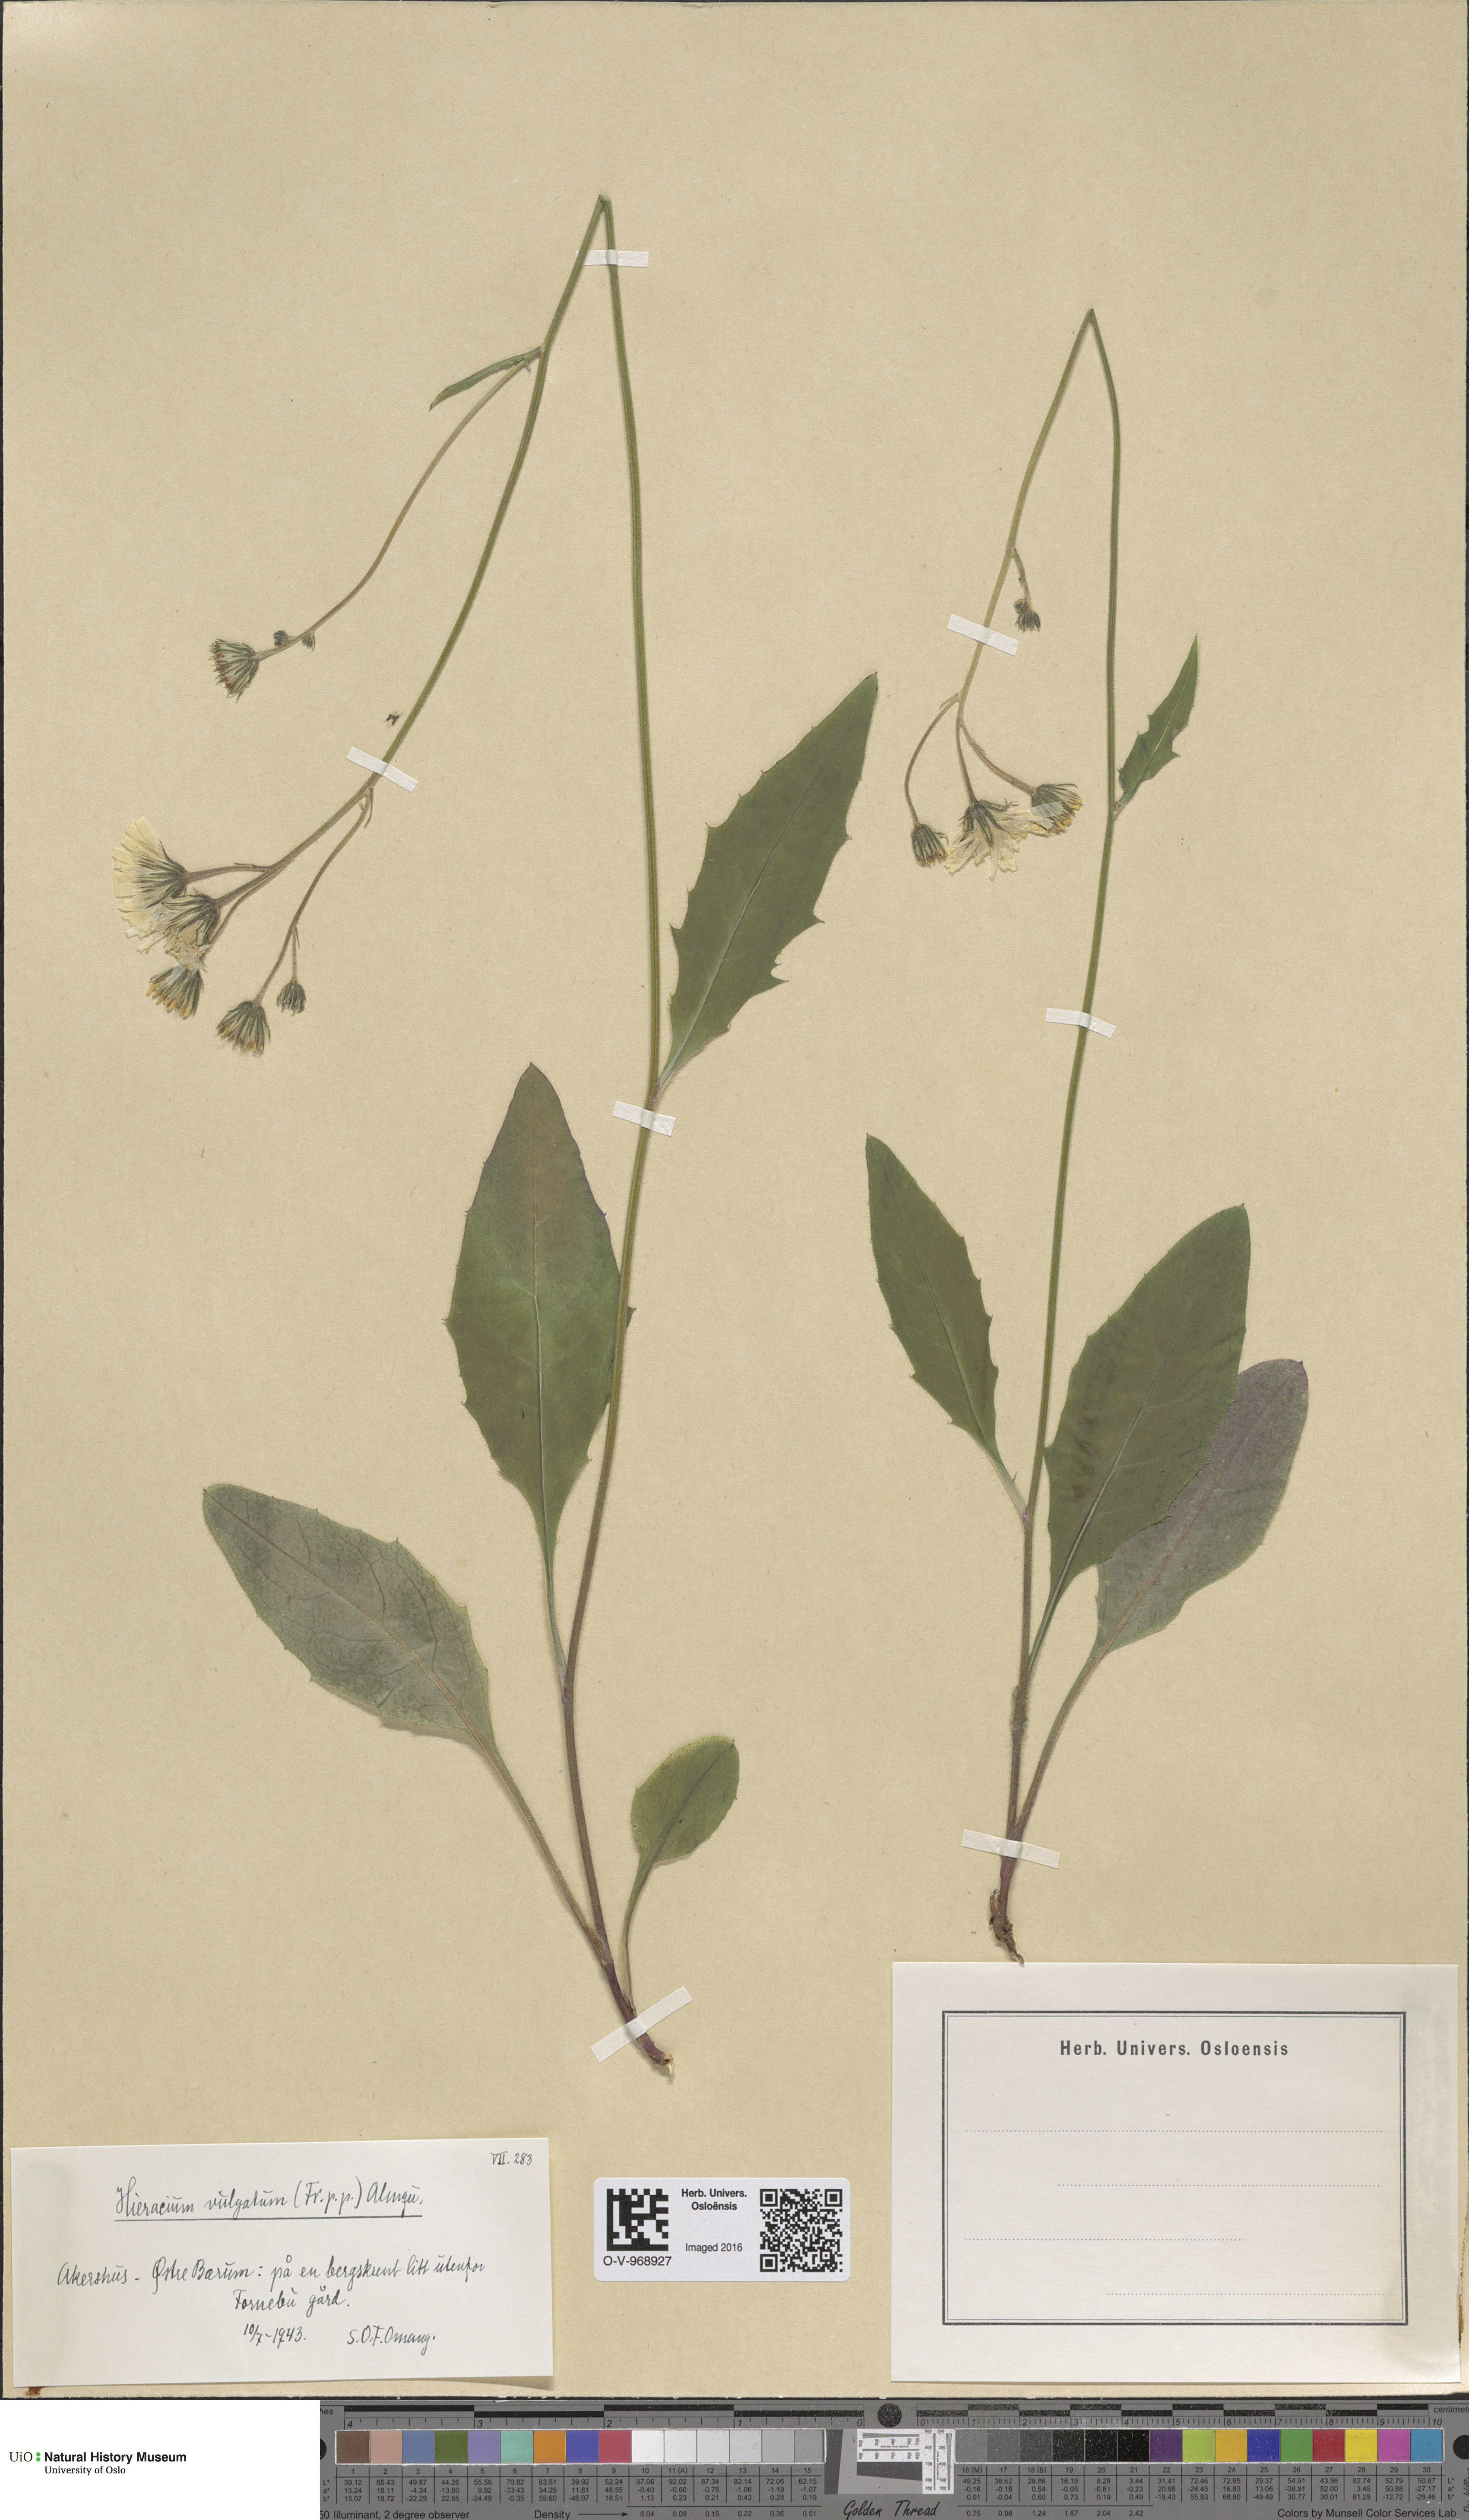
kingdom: Plantae
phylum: Tracheophyta
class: Magnoliopsida
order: Asterales
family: Asteraceae
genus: Hieracium
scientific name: Hieracium vulgatum
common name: Common hawkweed
